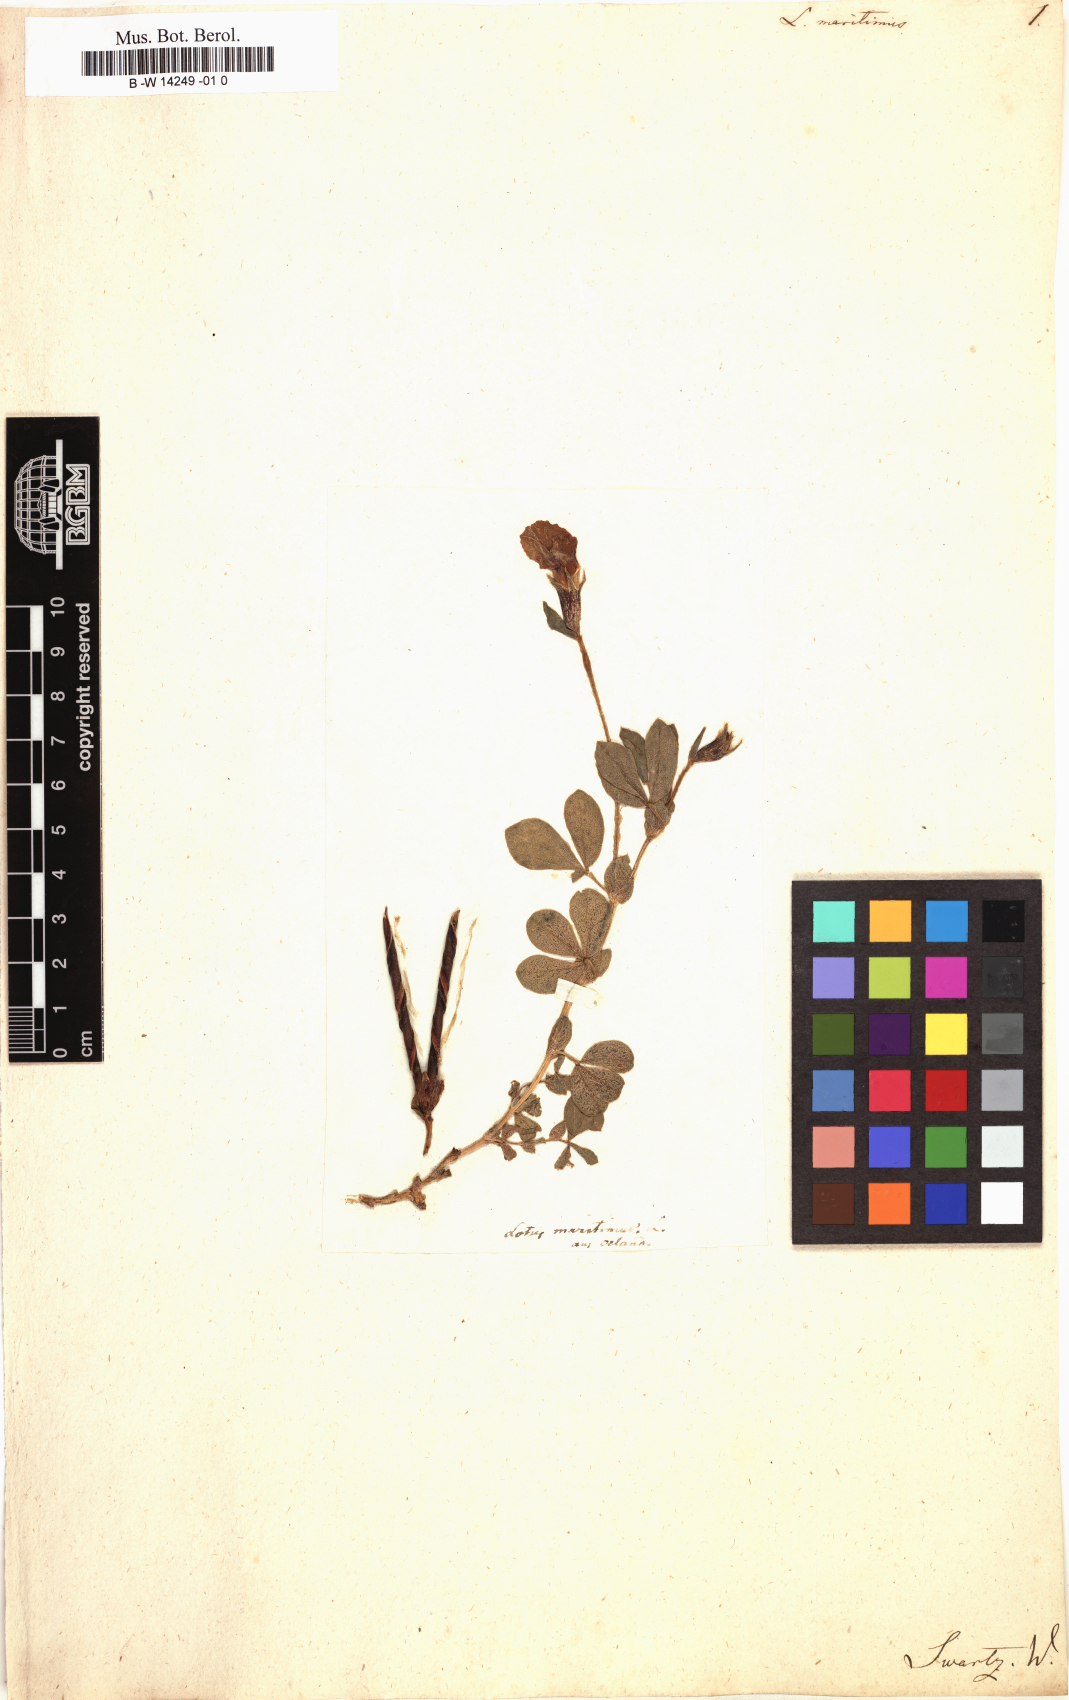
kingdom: Plantae
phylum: Tracheophyta
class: Magnoliopsida
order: Fabales
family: Fabaceae
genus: Lotus
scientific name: Lotus maritimus
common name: Dragon's-teeth
